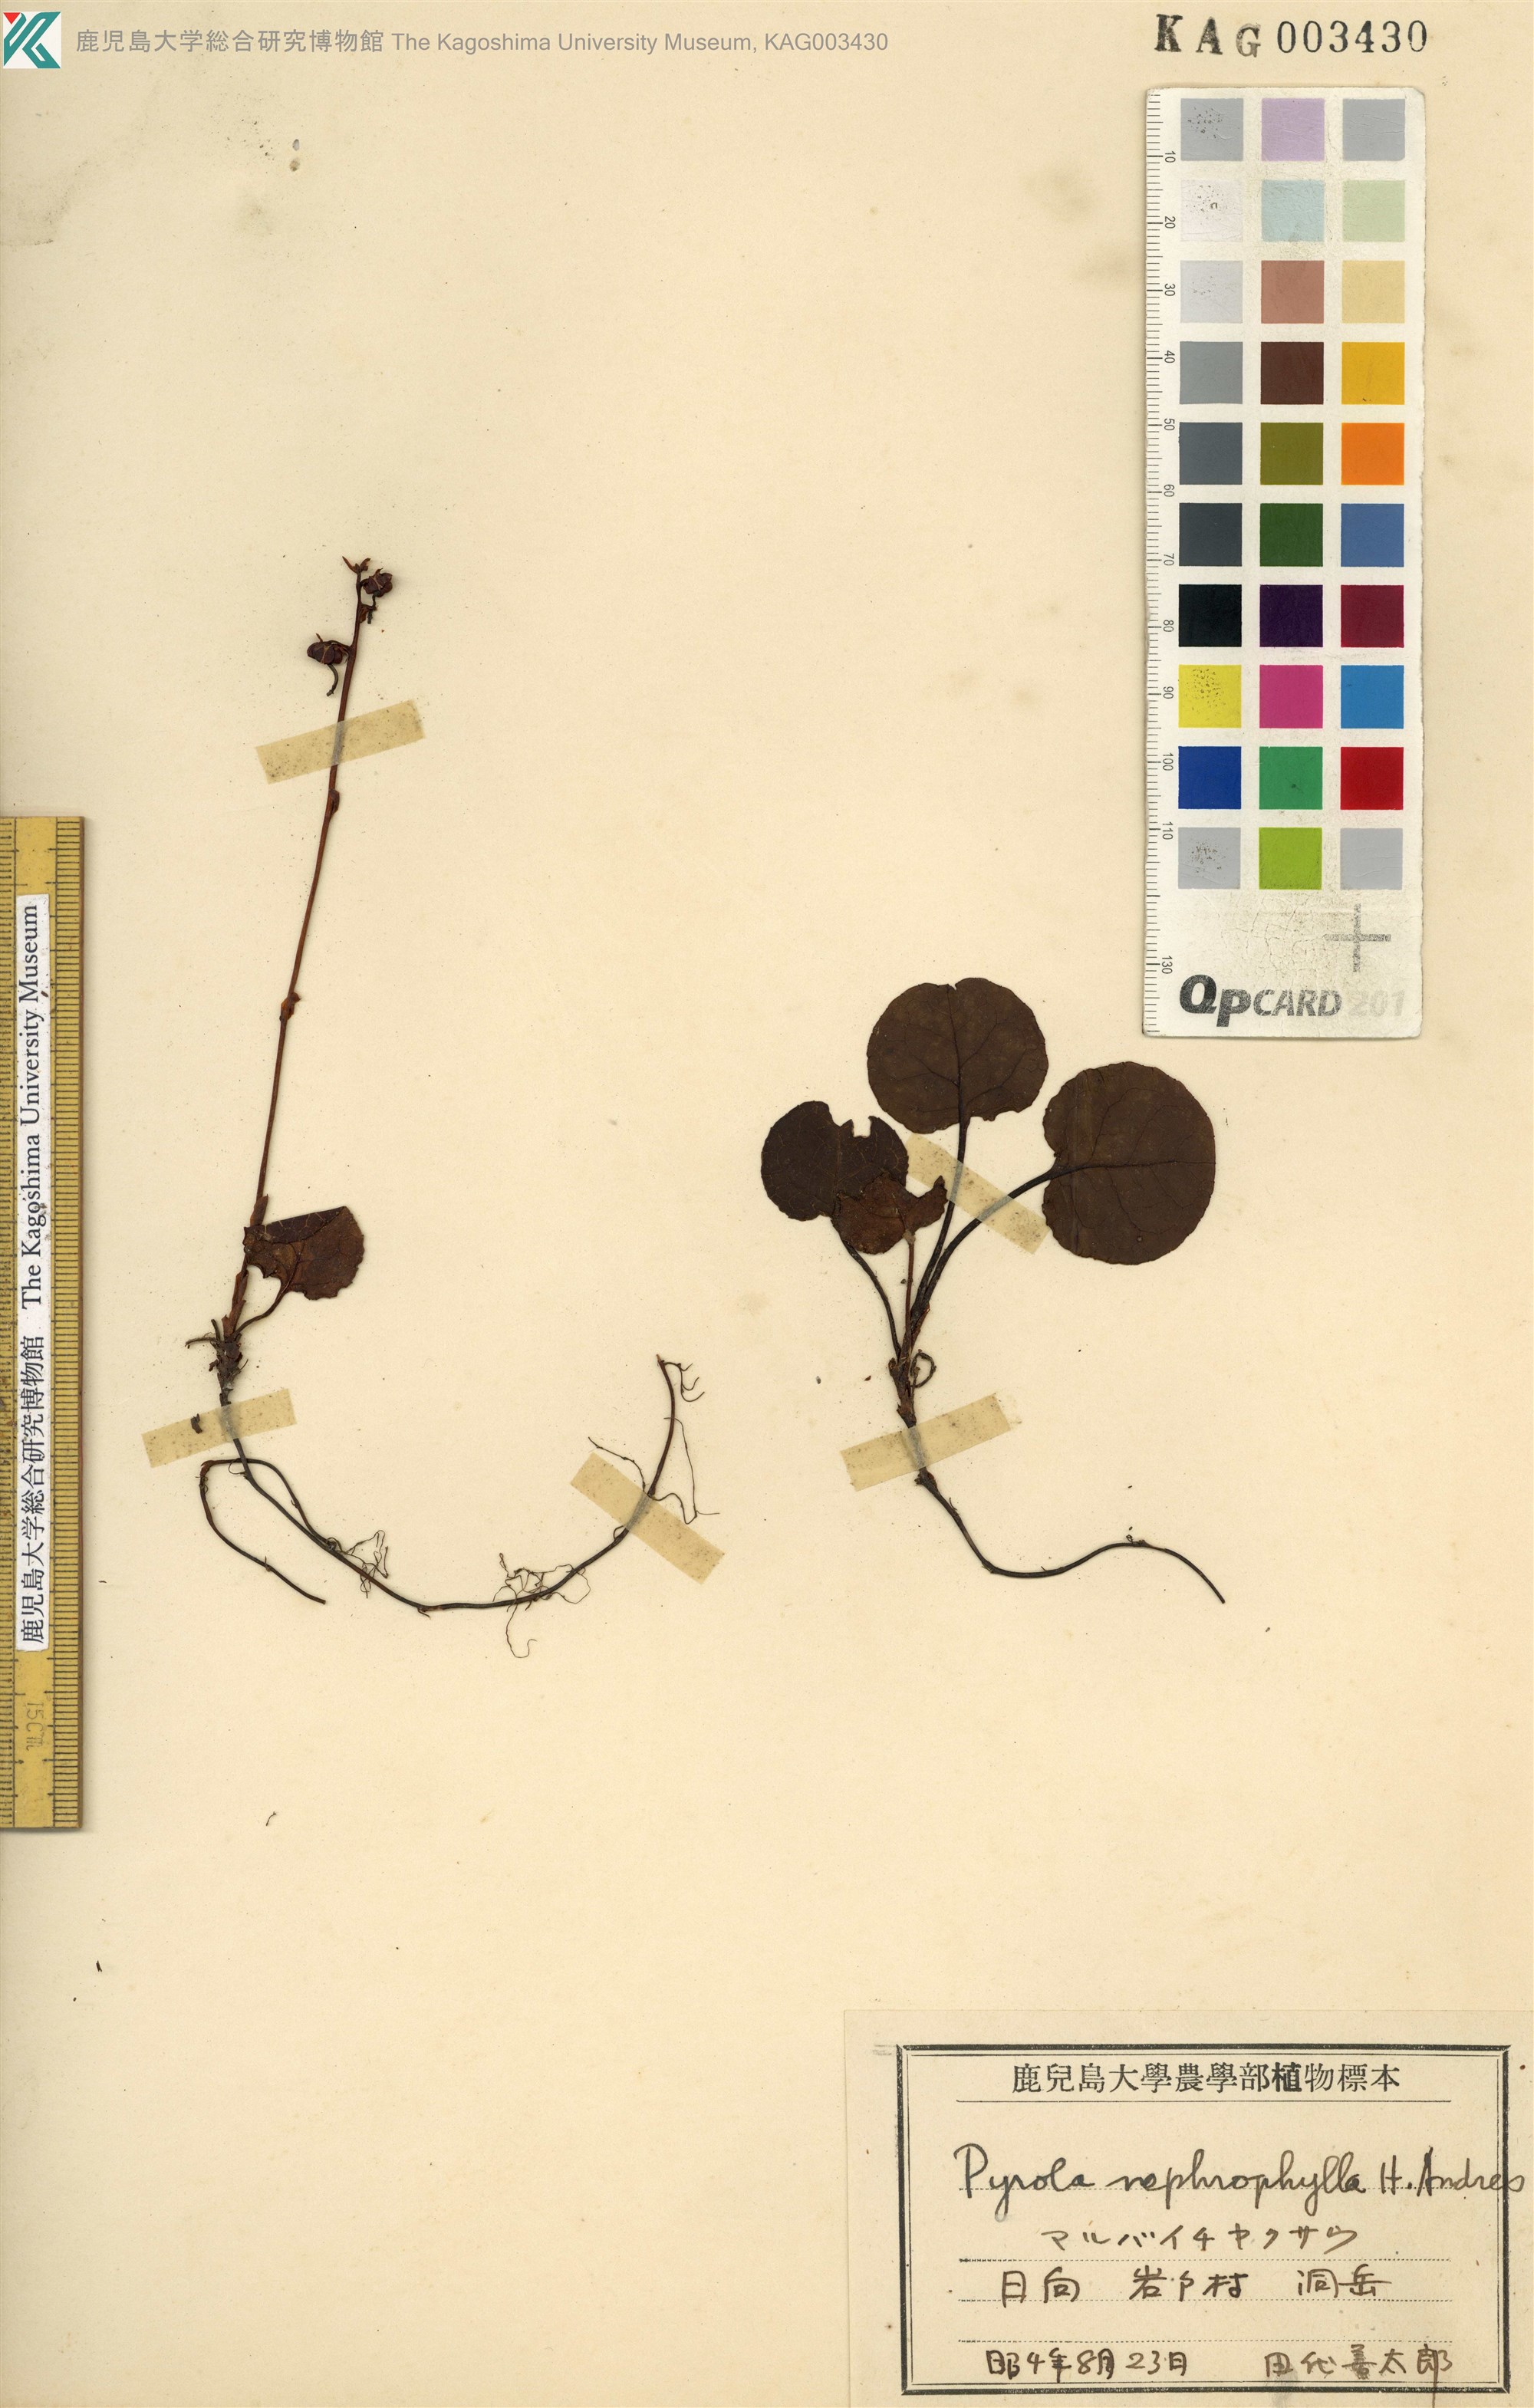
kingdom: Plantae
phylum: Tracheophyta
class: Magnoliopsida
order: Ericales
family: Ericaceae
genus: Pyrola
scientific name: Pyrola nephrophylla
